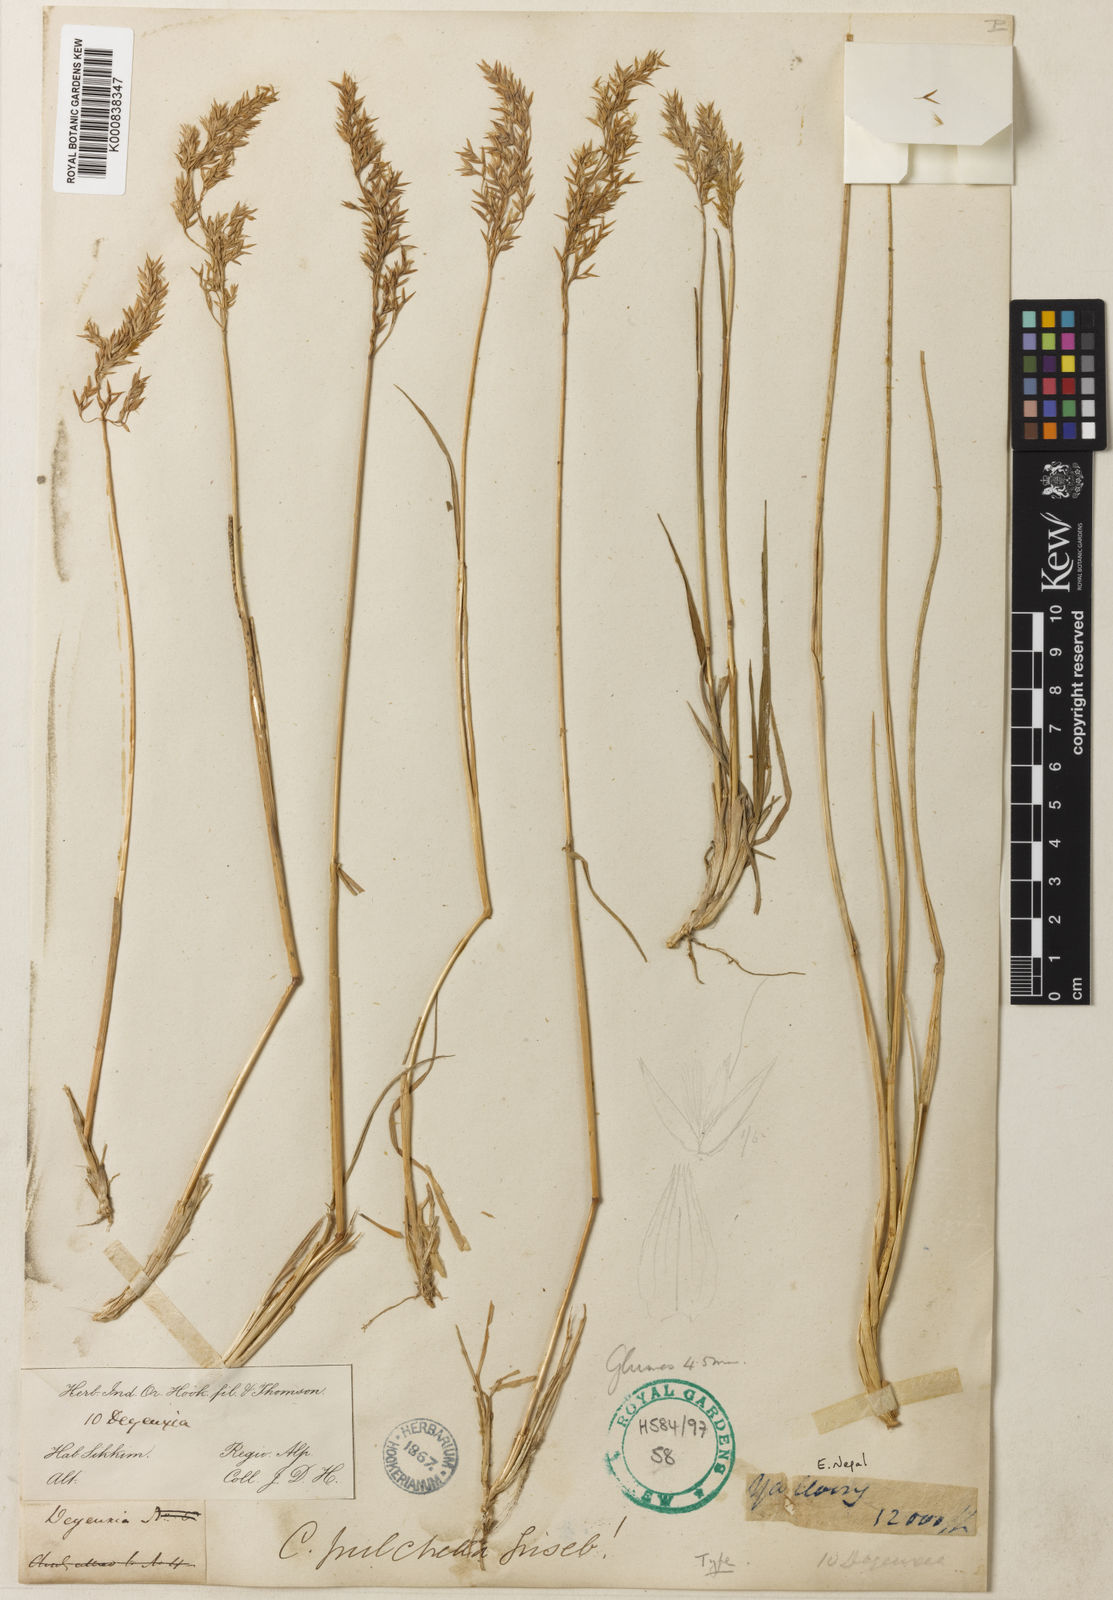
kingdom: Plantae
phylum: Tracheophyta
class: Liliopsida
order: Poales
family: Poaceae
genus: Calamagrostis
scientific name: Calamagrostis lahulensis
